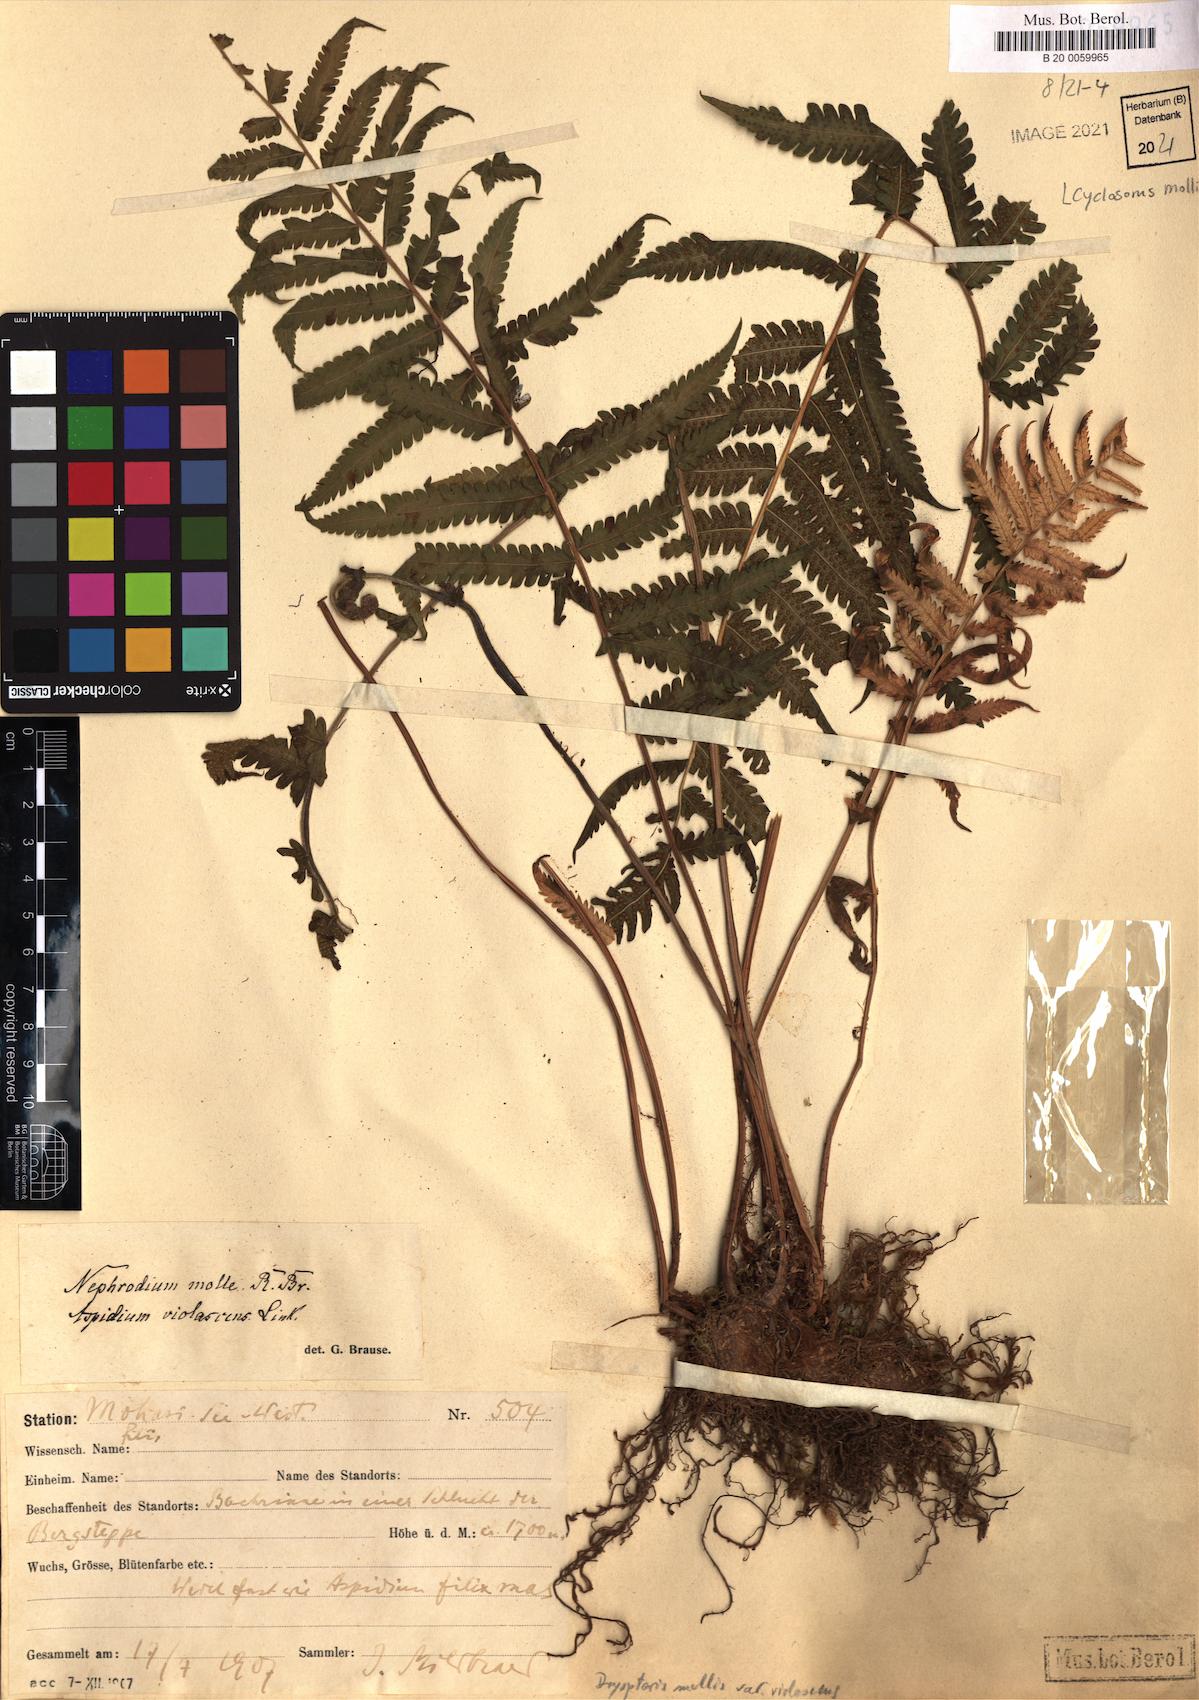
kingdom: Plantae
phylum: Tracheophyta
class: Polypodiopsida
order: Polypodiales
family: Thelypteridaceae
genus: Christella
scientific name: Christella dentata
